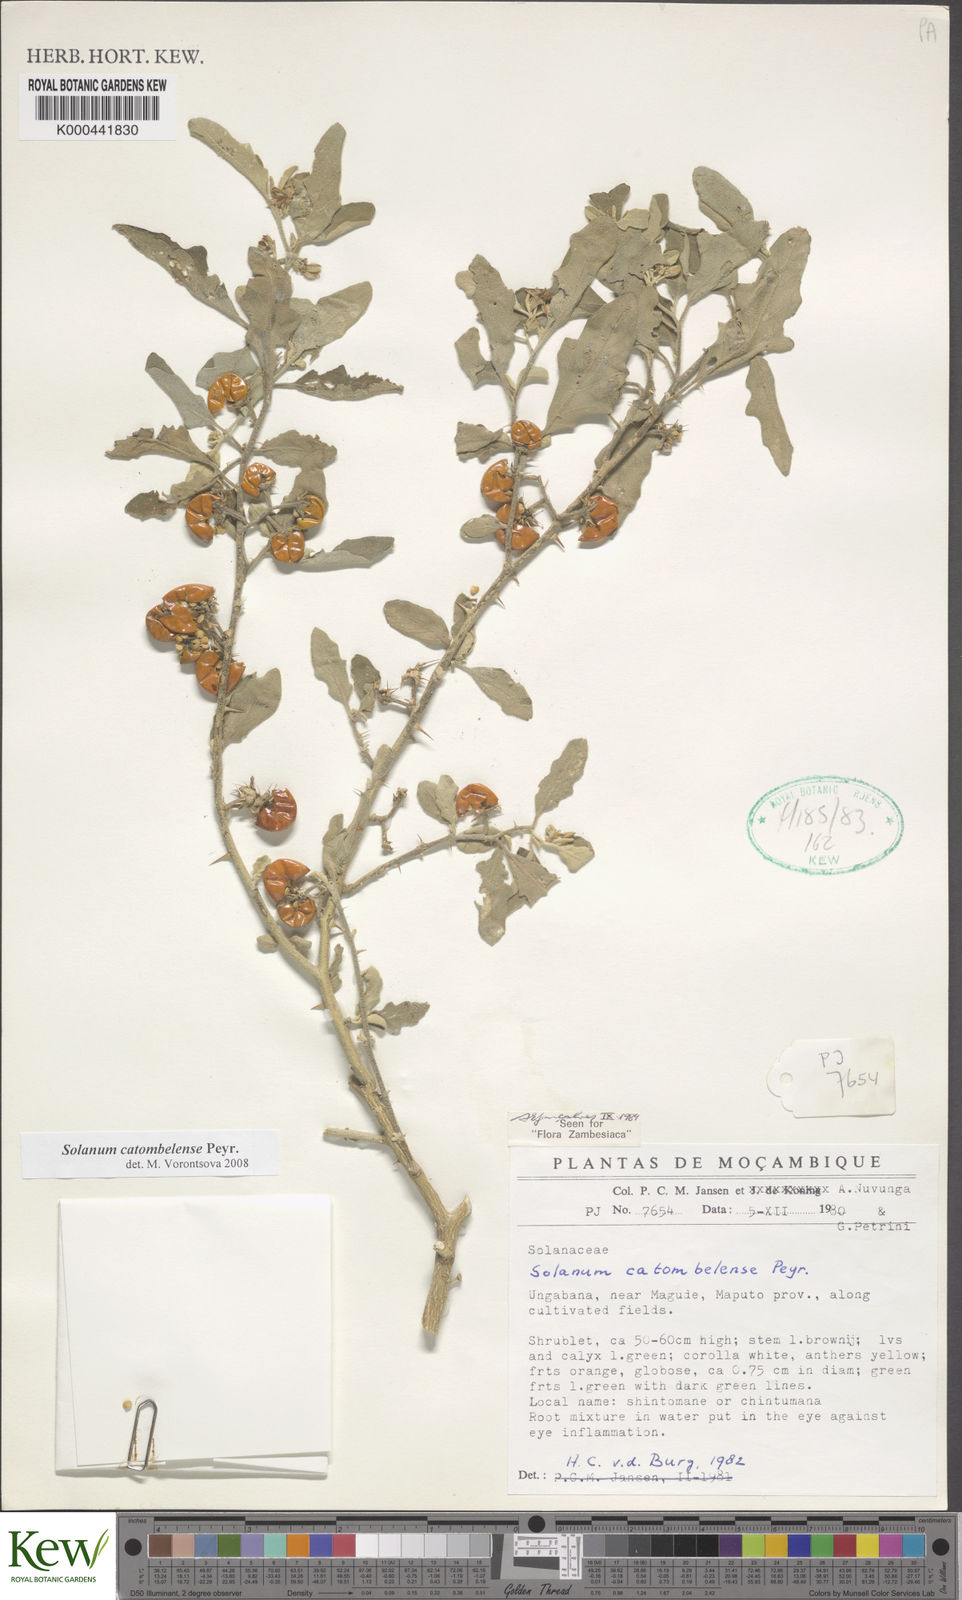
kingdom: Plantae
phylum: Tracheophyta
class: Magnoliopsida
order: Solanales
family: Solanaceae
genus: Solanum
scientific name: Solanum catombelense
